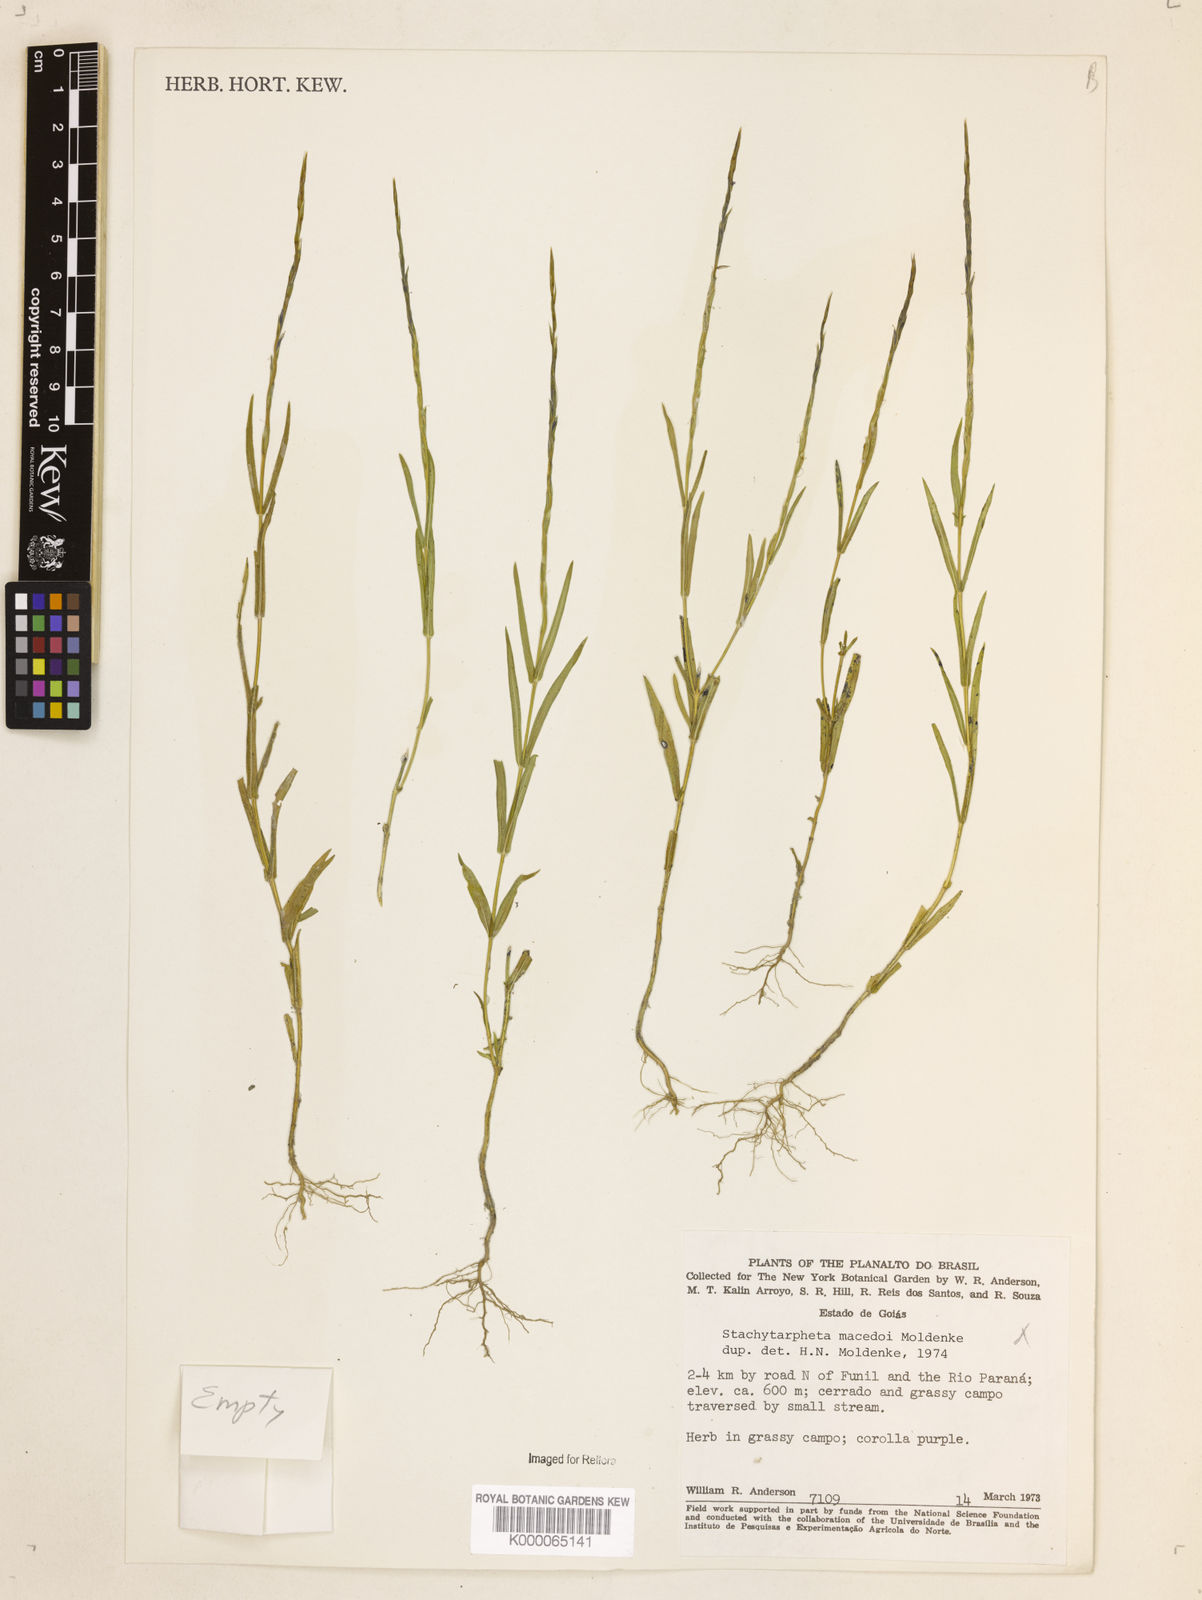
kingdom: Plantae
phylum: Tracheophyta
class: Magnoliopsida
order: Lamiales
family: Verbenaceae
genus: Stachytarpheta
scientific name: Stachytarpheta macedoi
